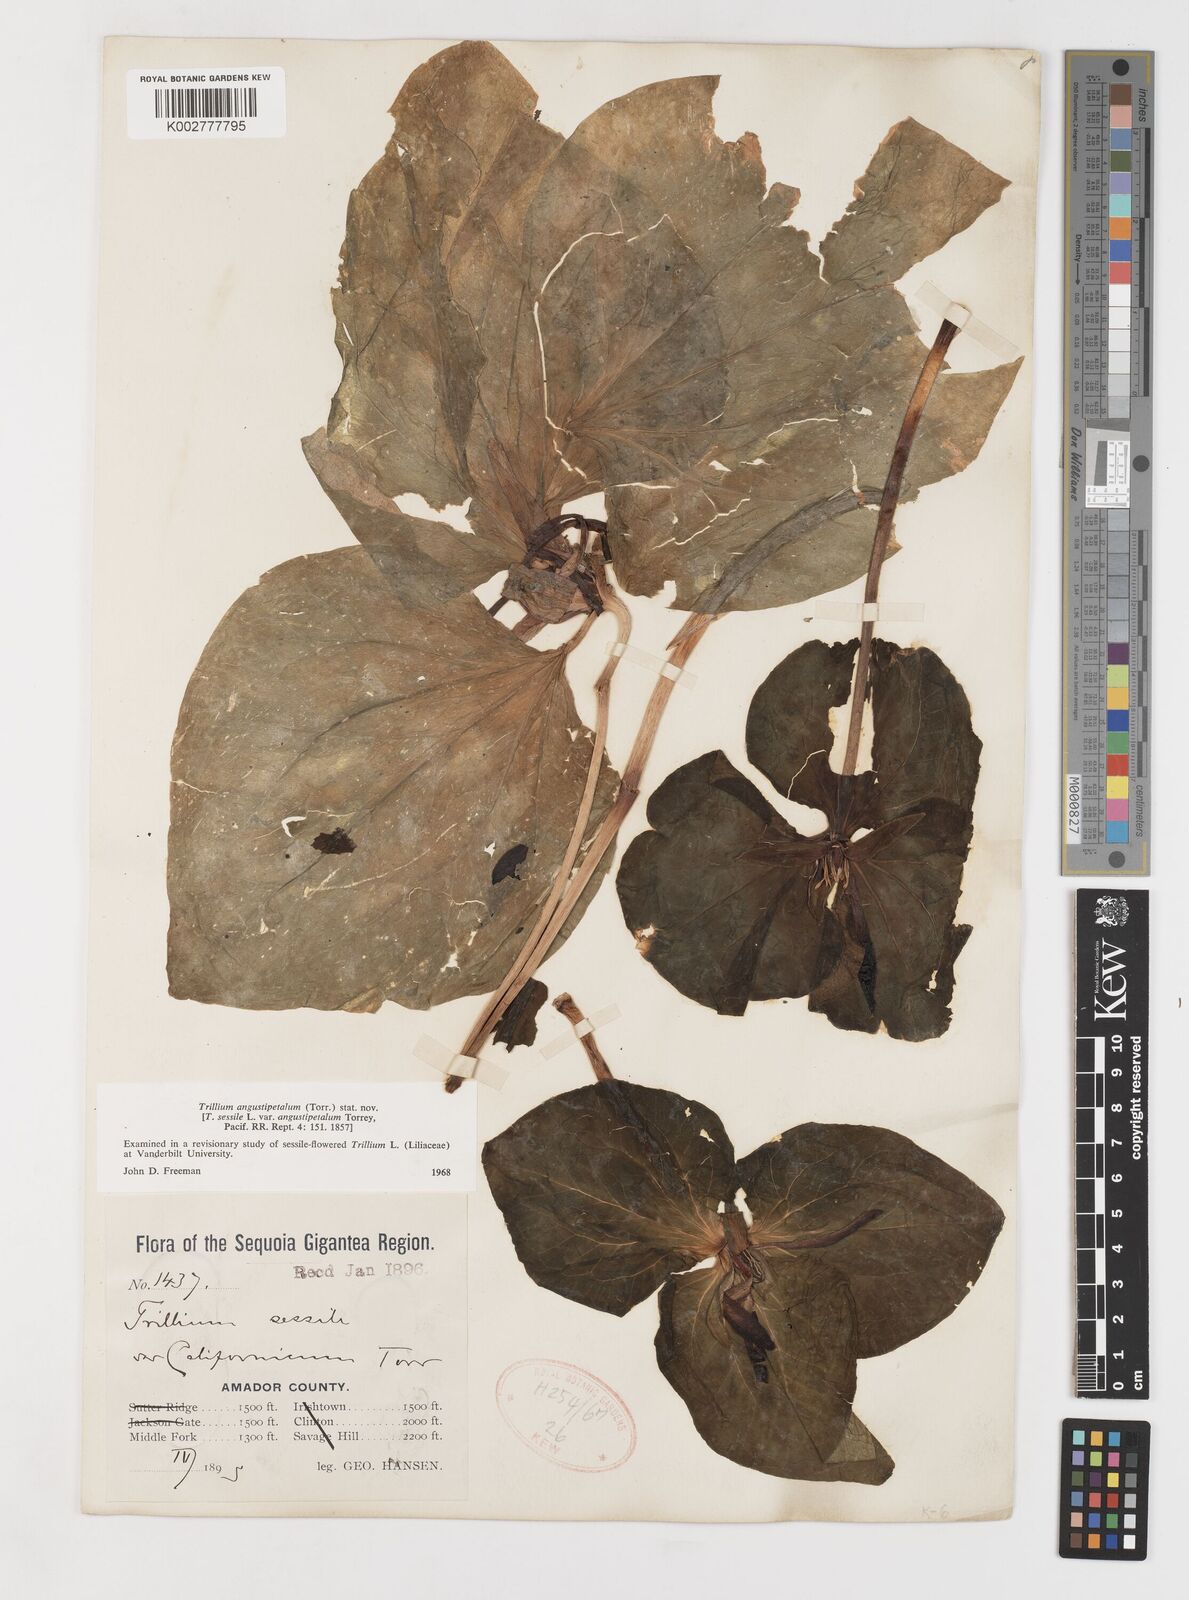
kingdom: Plantae
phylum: Tracheophyta
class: Liliopsida
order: Liliales
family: Melanthiaceae
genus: Trillium
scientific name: Trillium pusillum
